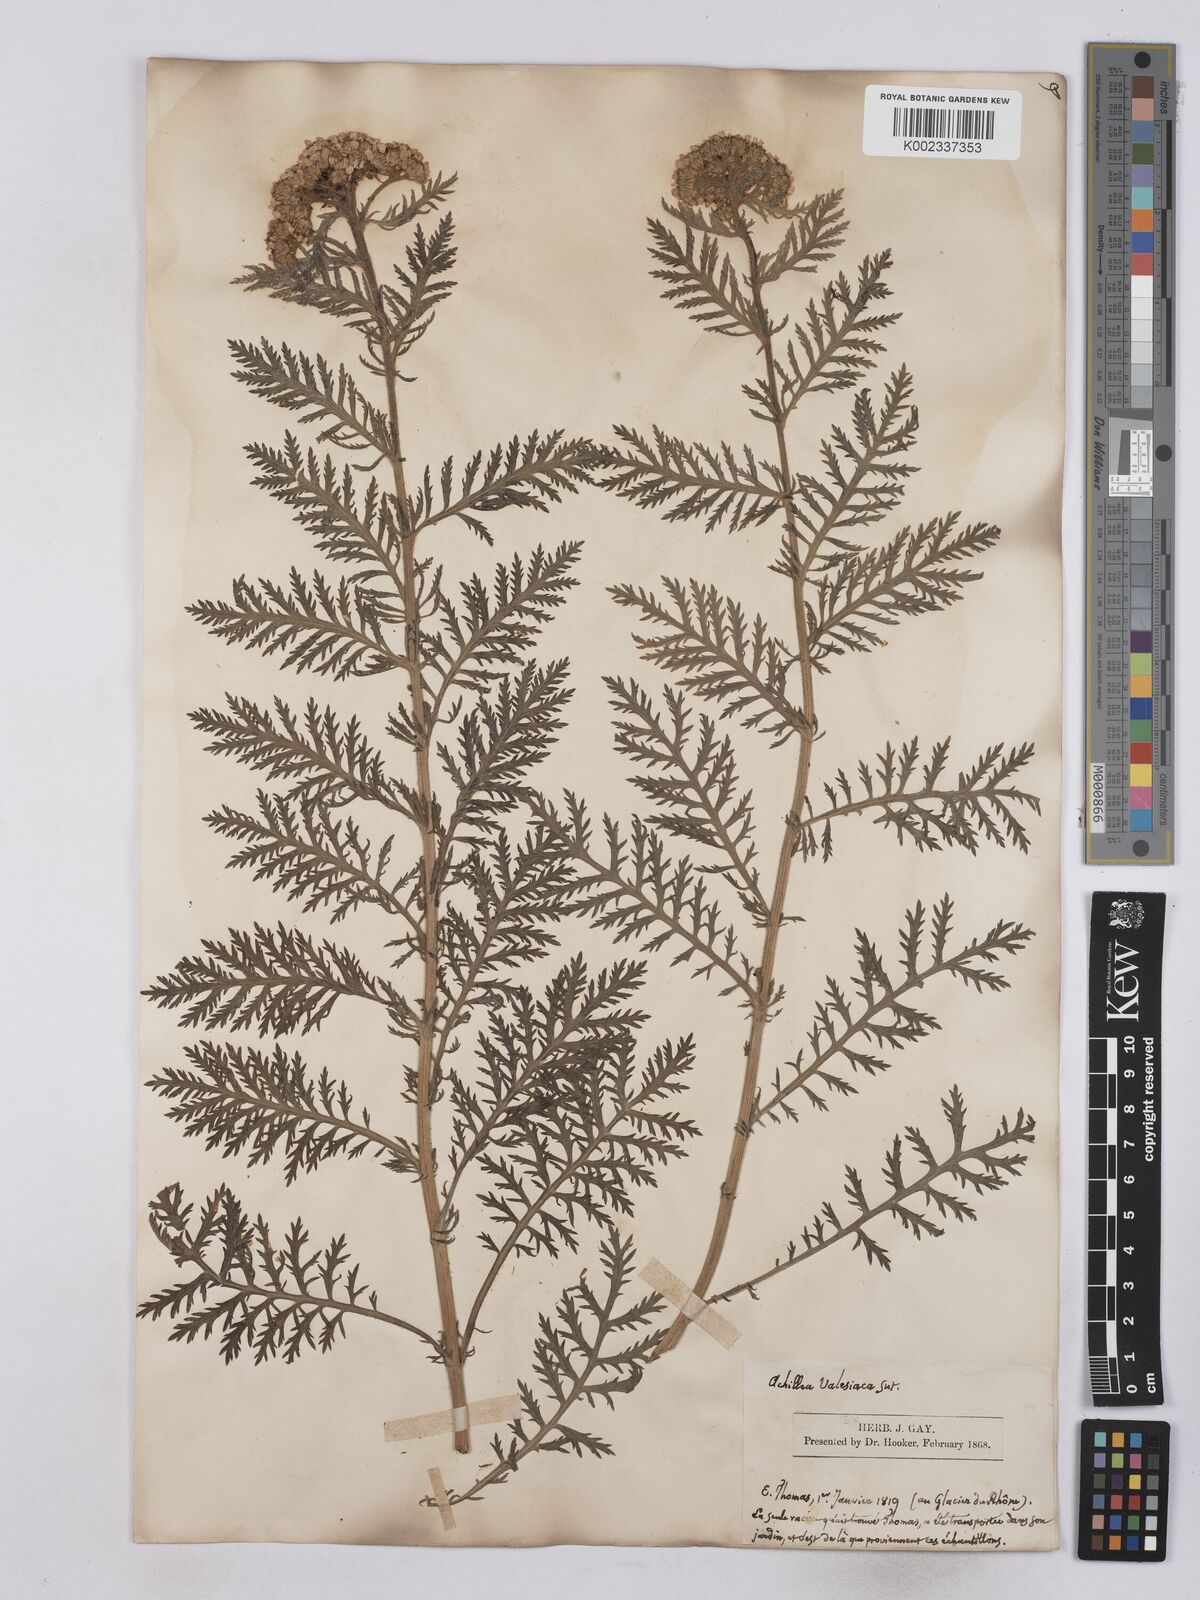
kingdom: Plantae
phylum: Tracheophyta
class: Magnoliopsida
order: Asterales
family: Asteraceae
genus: Achillea
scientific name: Achillea valesiaca
